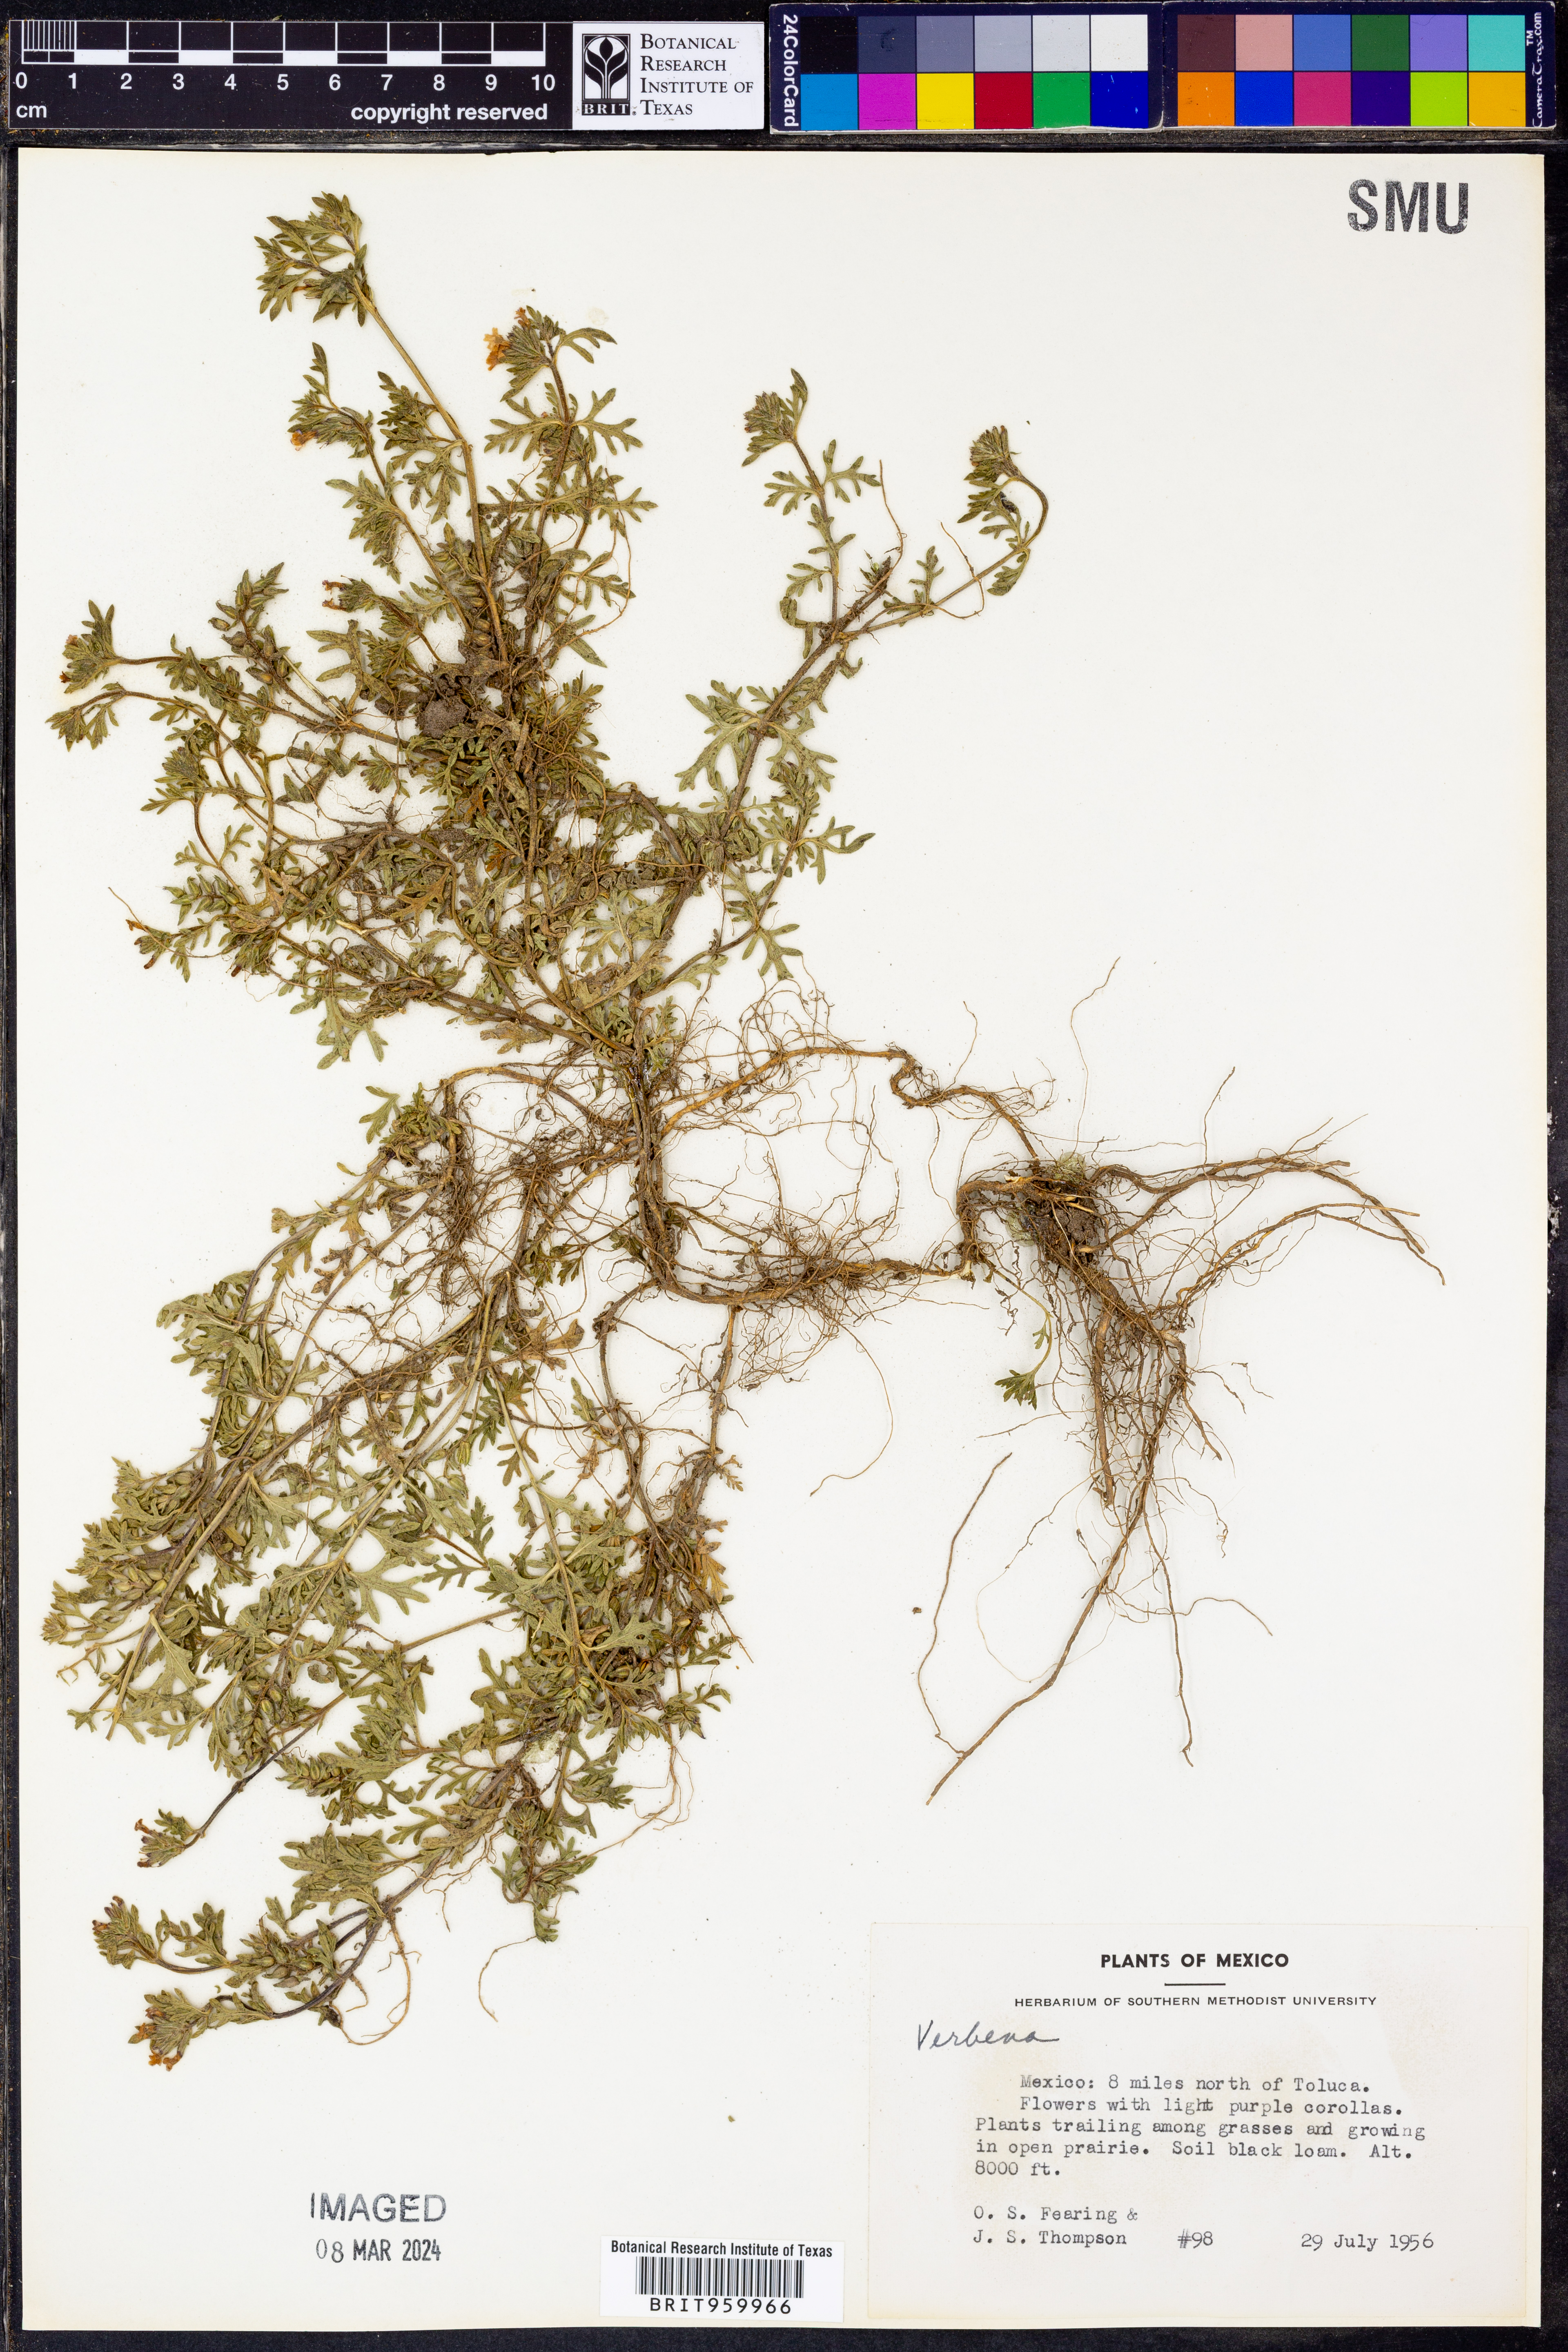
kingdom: Plantae
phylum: Tracheophyta
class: Magnoliopsida
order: Lamiales
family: Verbenaceae
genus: Verbena
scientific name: Verbena teucriifolia
